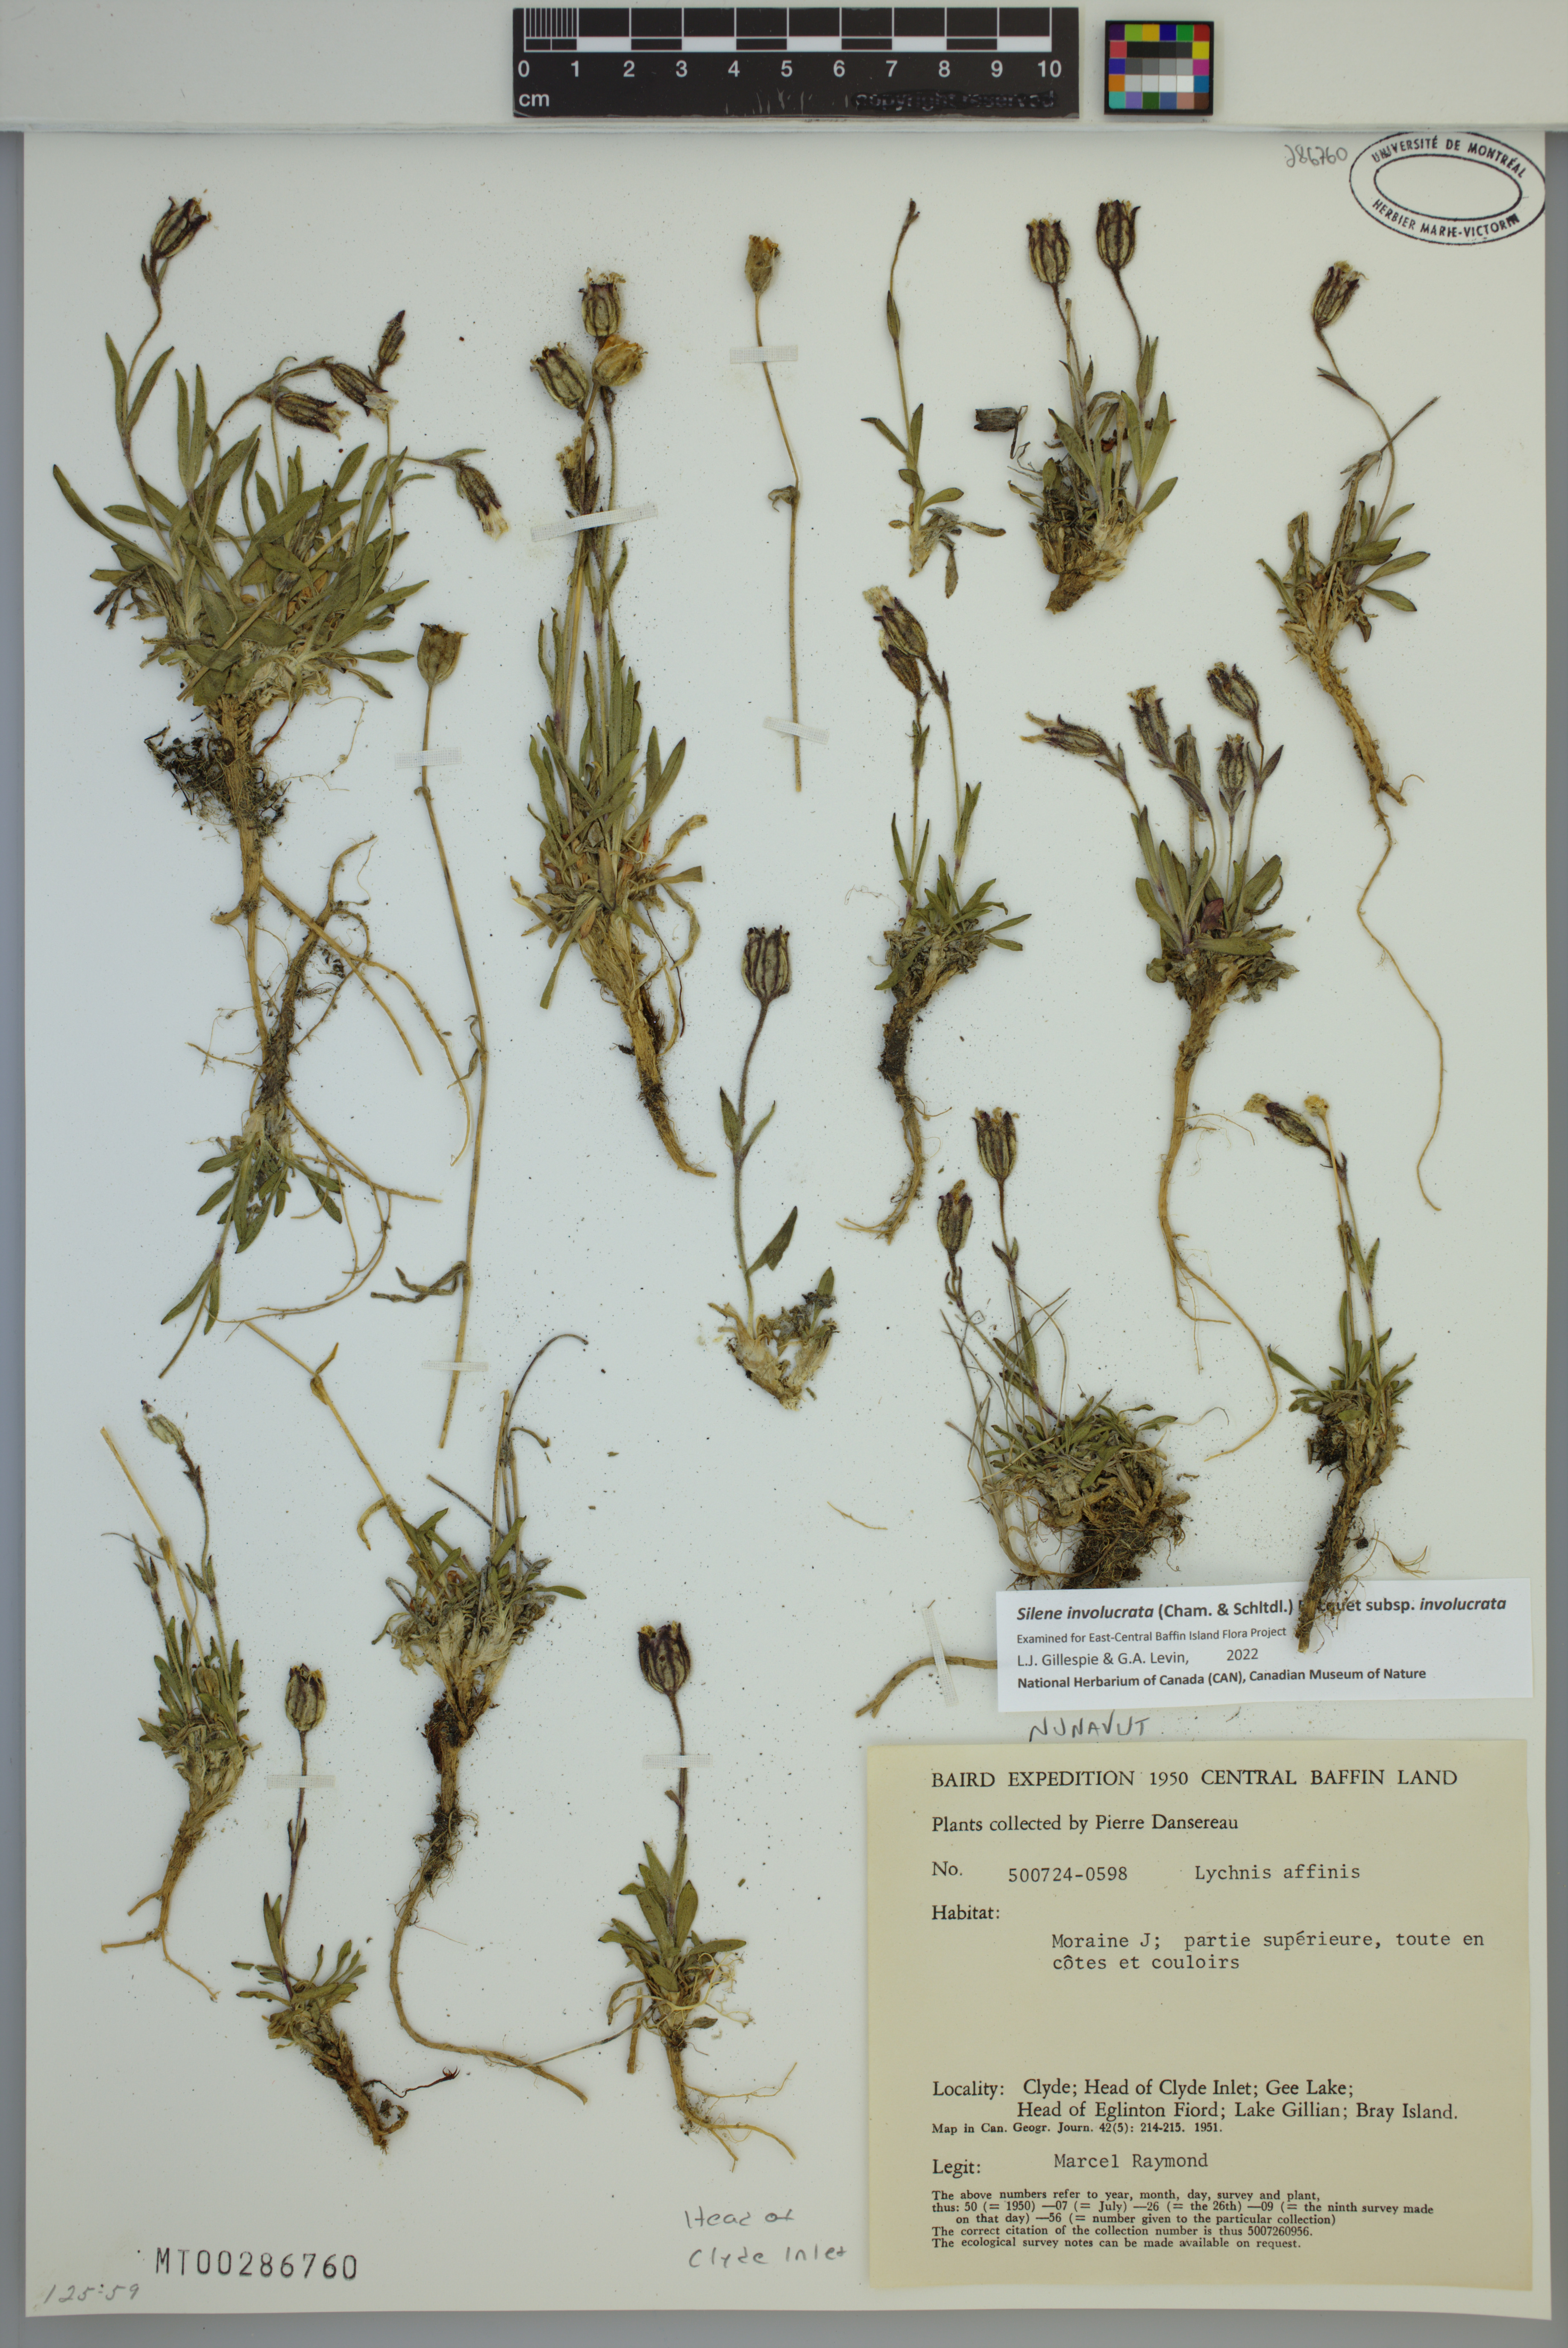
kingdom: Plantae
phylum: Tracheophyta
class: Magnoliopsida
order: Caryophyllales
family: Caryophyllaceae
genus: Silene
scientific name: Silene involucrata
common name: Greater arctic campion
